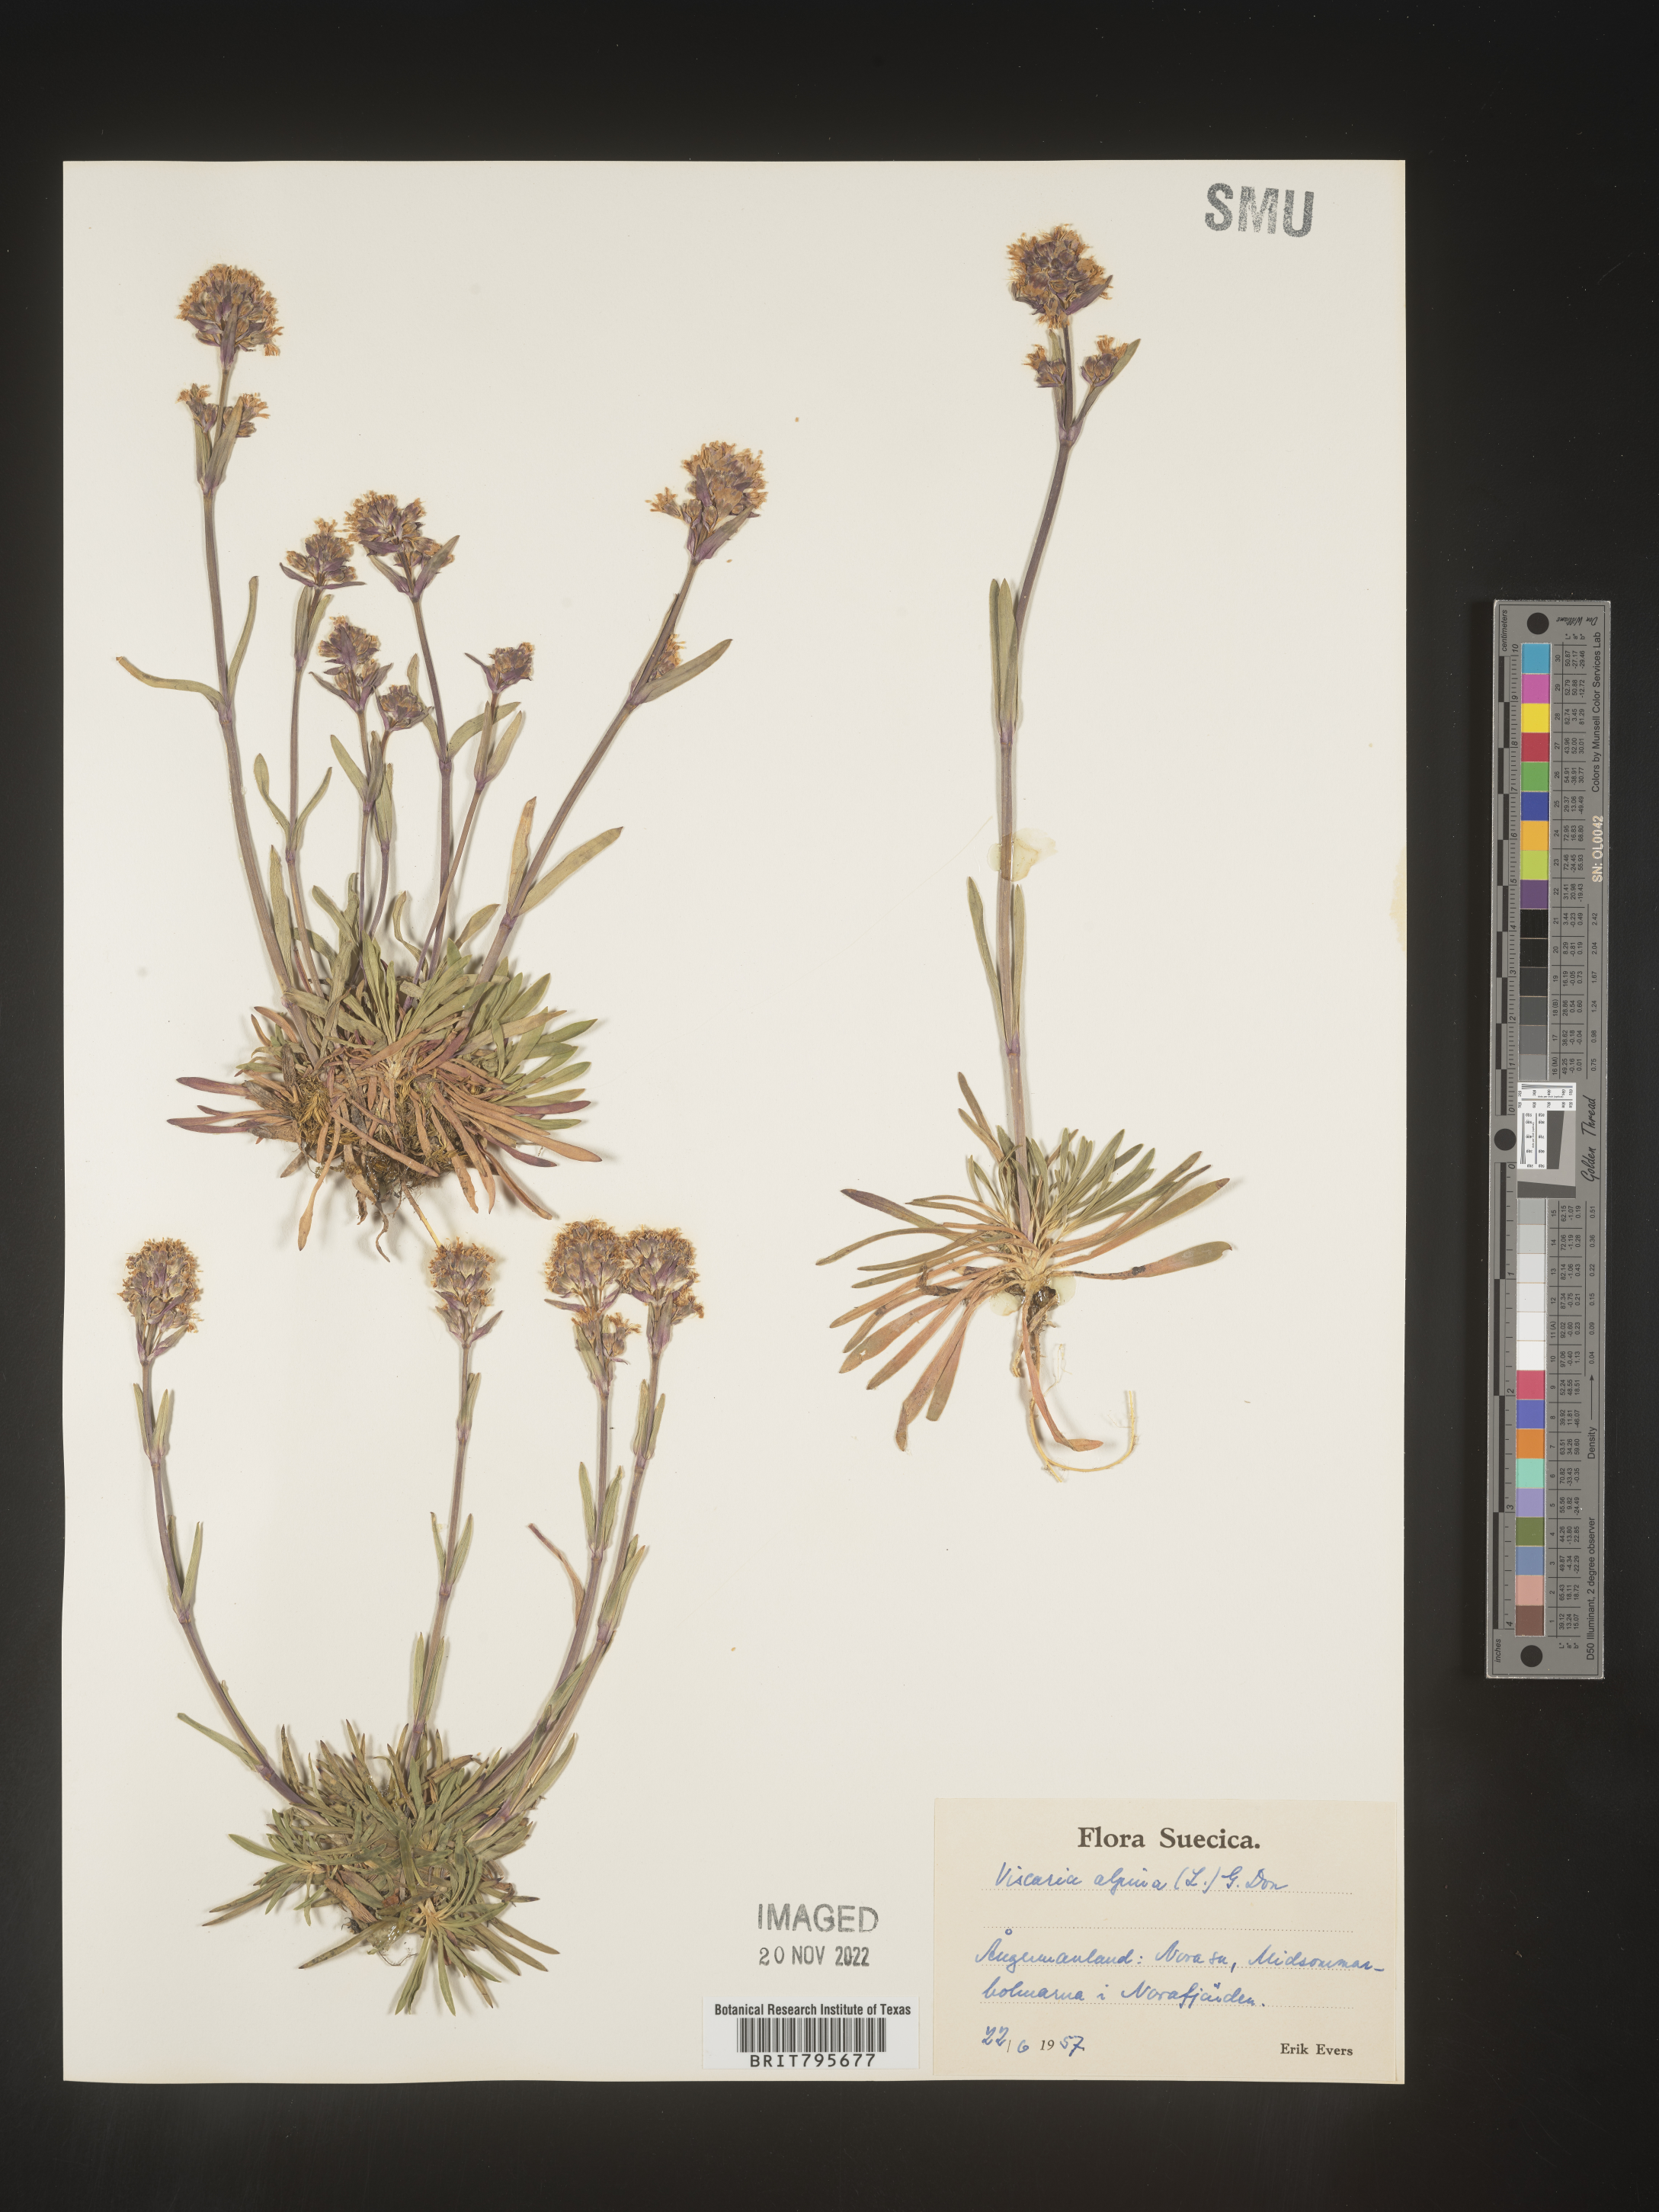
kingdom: Plantae
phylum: Tracheophyta
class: Magnoliopsida
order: Caryophyllales
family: Caryophyllaceae
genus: Viscaria
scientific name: Viscaria
